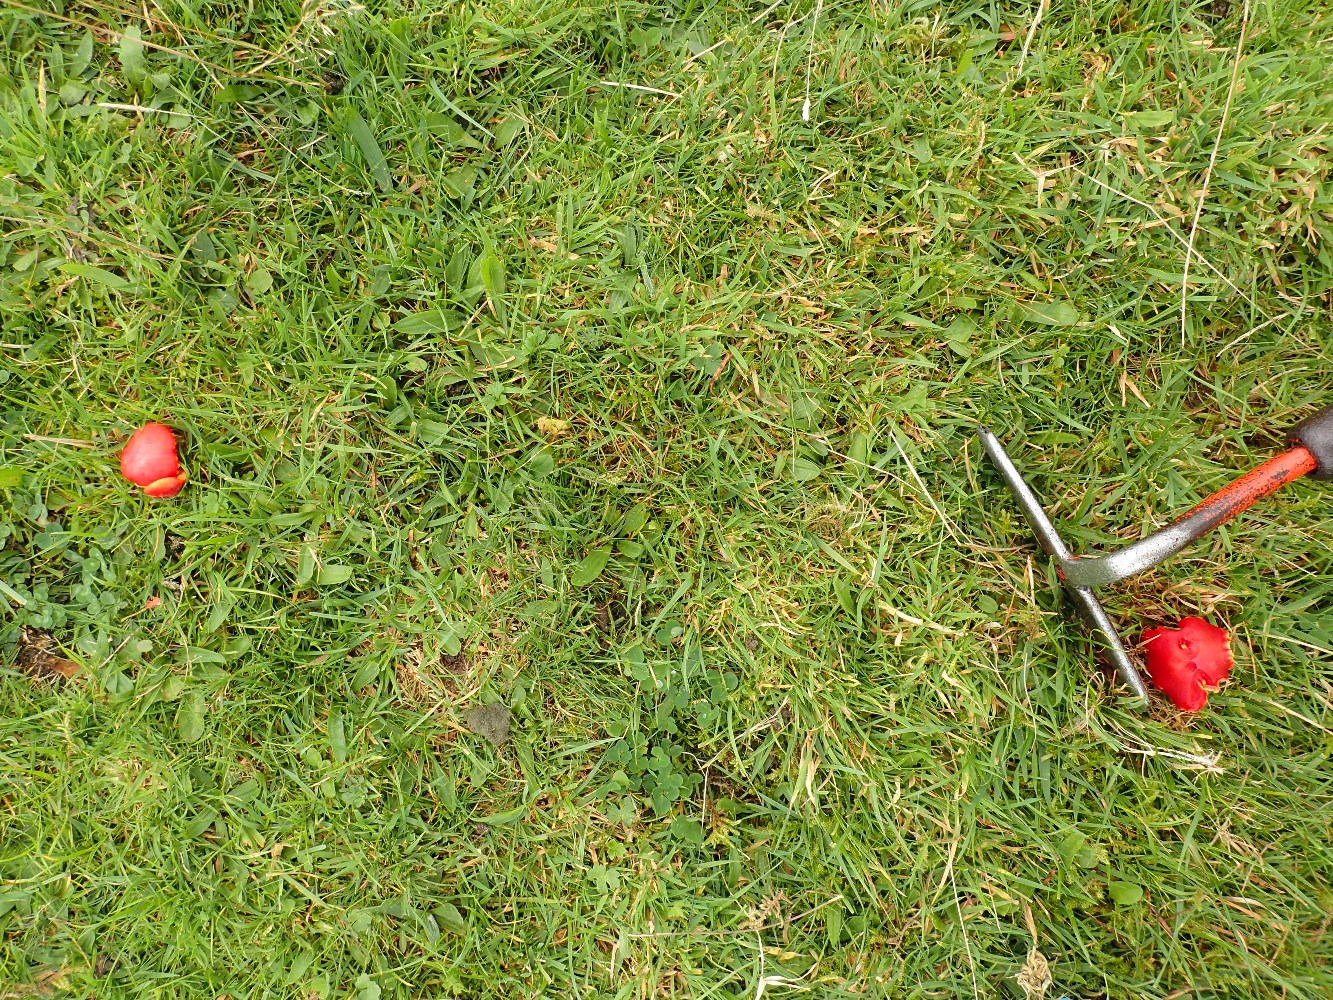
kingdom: Fungi
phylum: Basidiomycota
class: Agaricomycetes
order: Agaricales
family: Hygrophoraceae
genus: Hygrocybe
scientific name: Hygrocybe coccinea
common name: cinnober-vokshat
